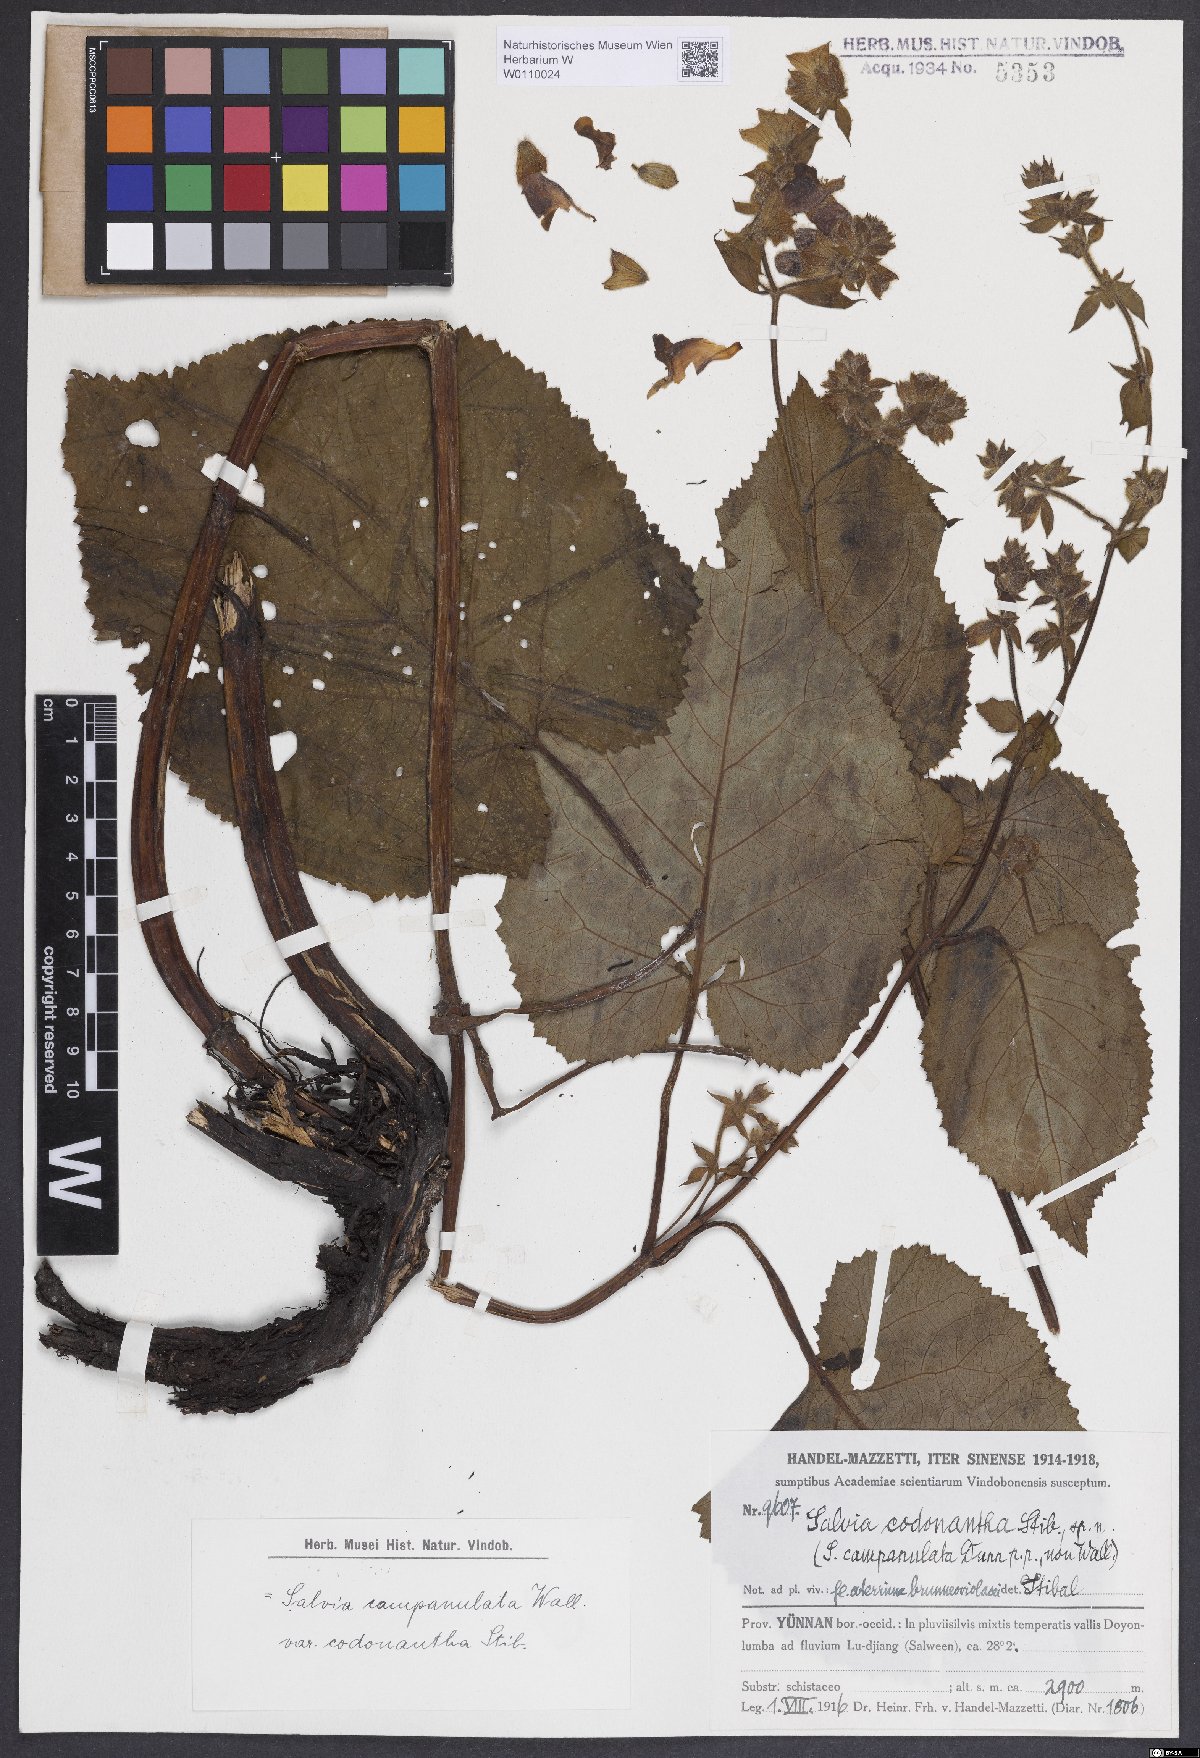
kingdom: Plantae
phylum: Tracheophyta
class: Magnoliopsida
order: Lamiales
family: Lamiaceae
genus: Salvia
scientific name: Salvia campanulata
